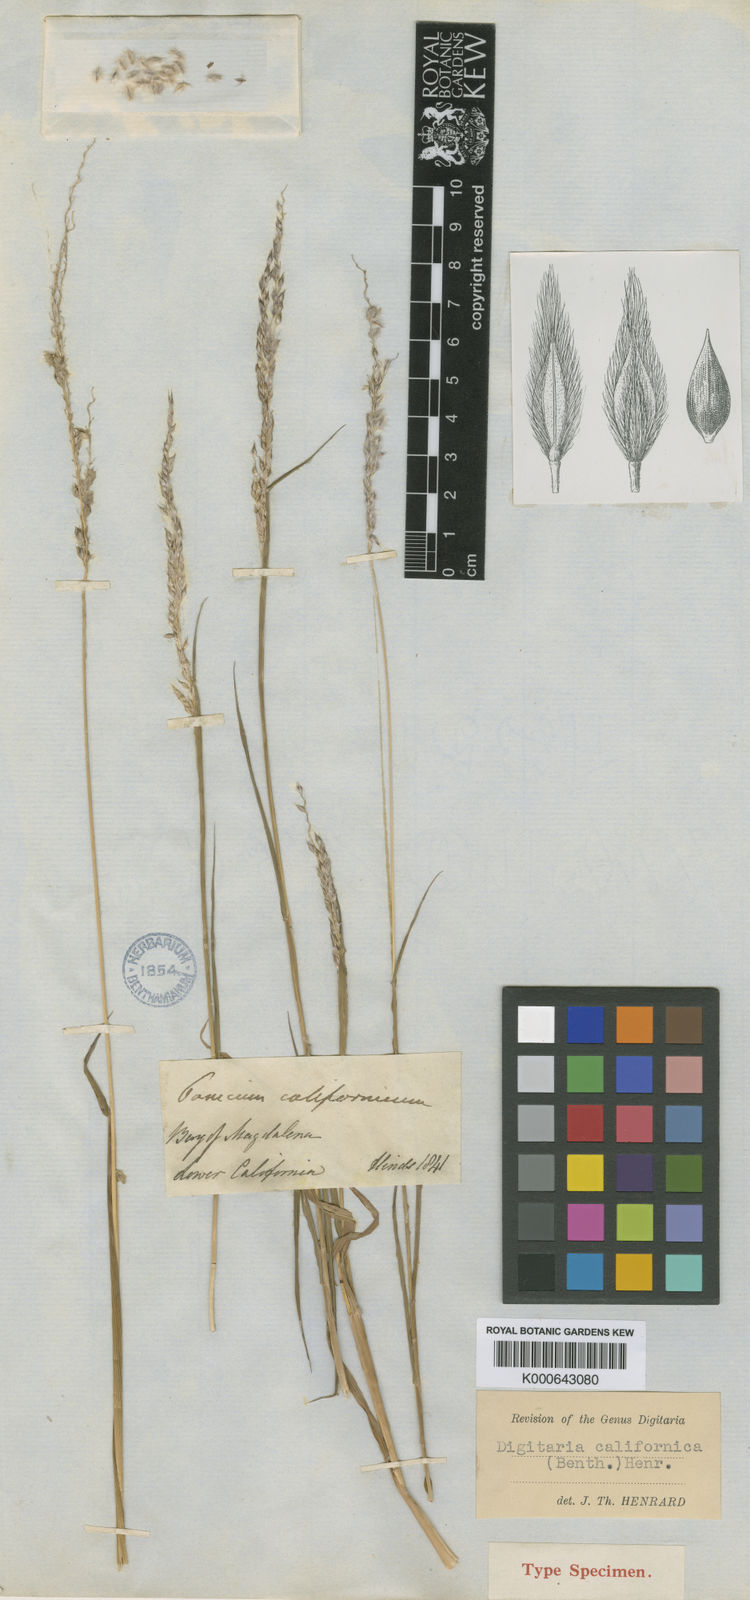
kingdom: Plantae
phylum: Tracheophyta
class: Liliopsida
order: Poales
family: Poaceae
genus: Digitaria
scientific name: Digitaria californica
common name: Arizona cottontop
